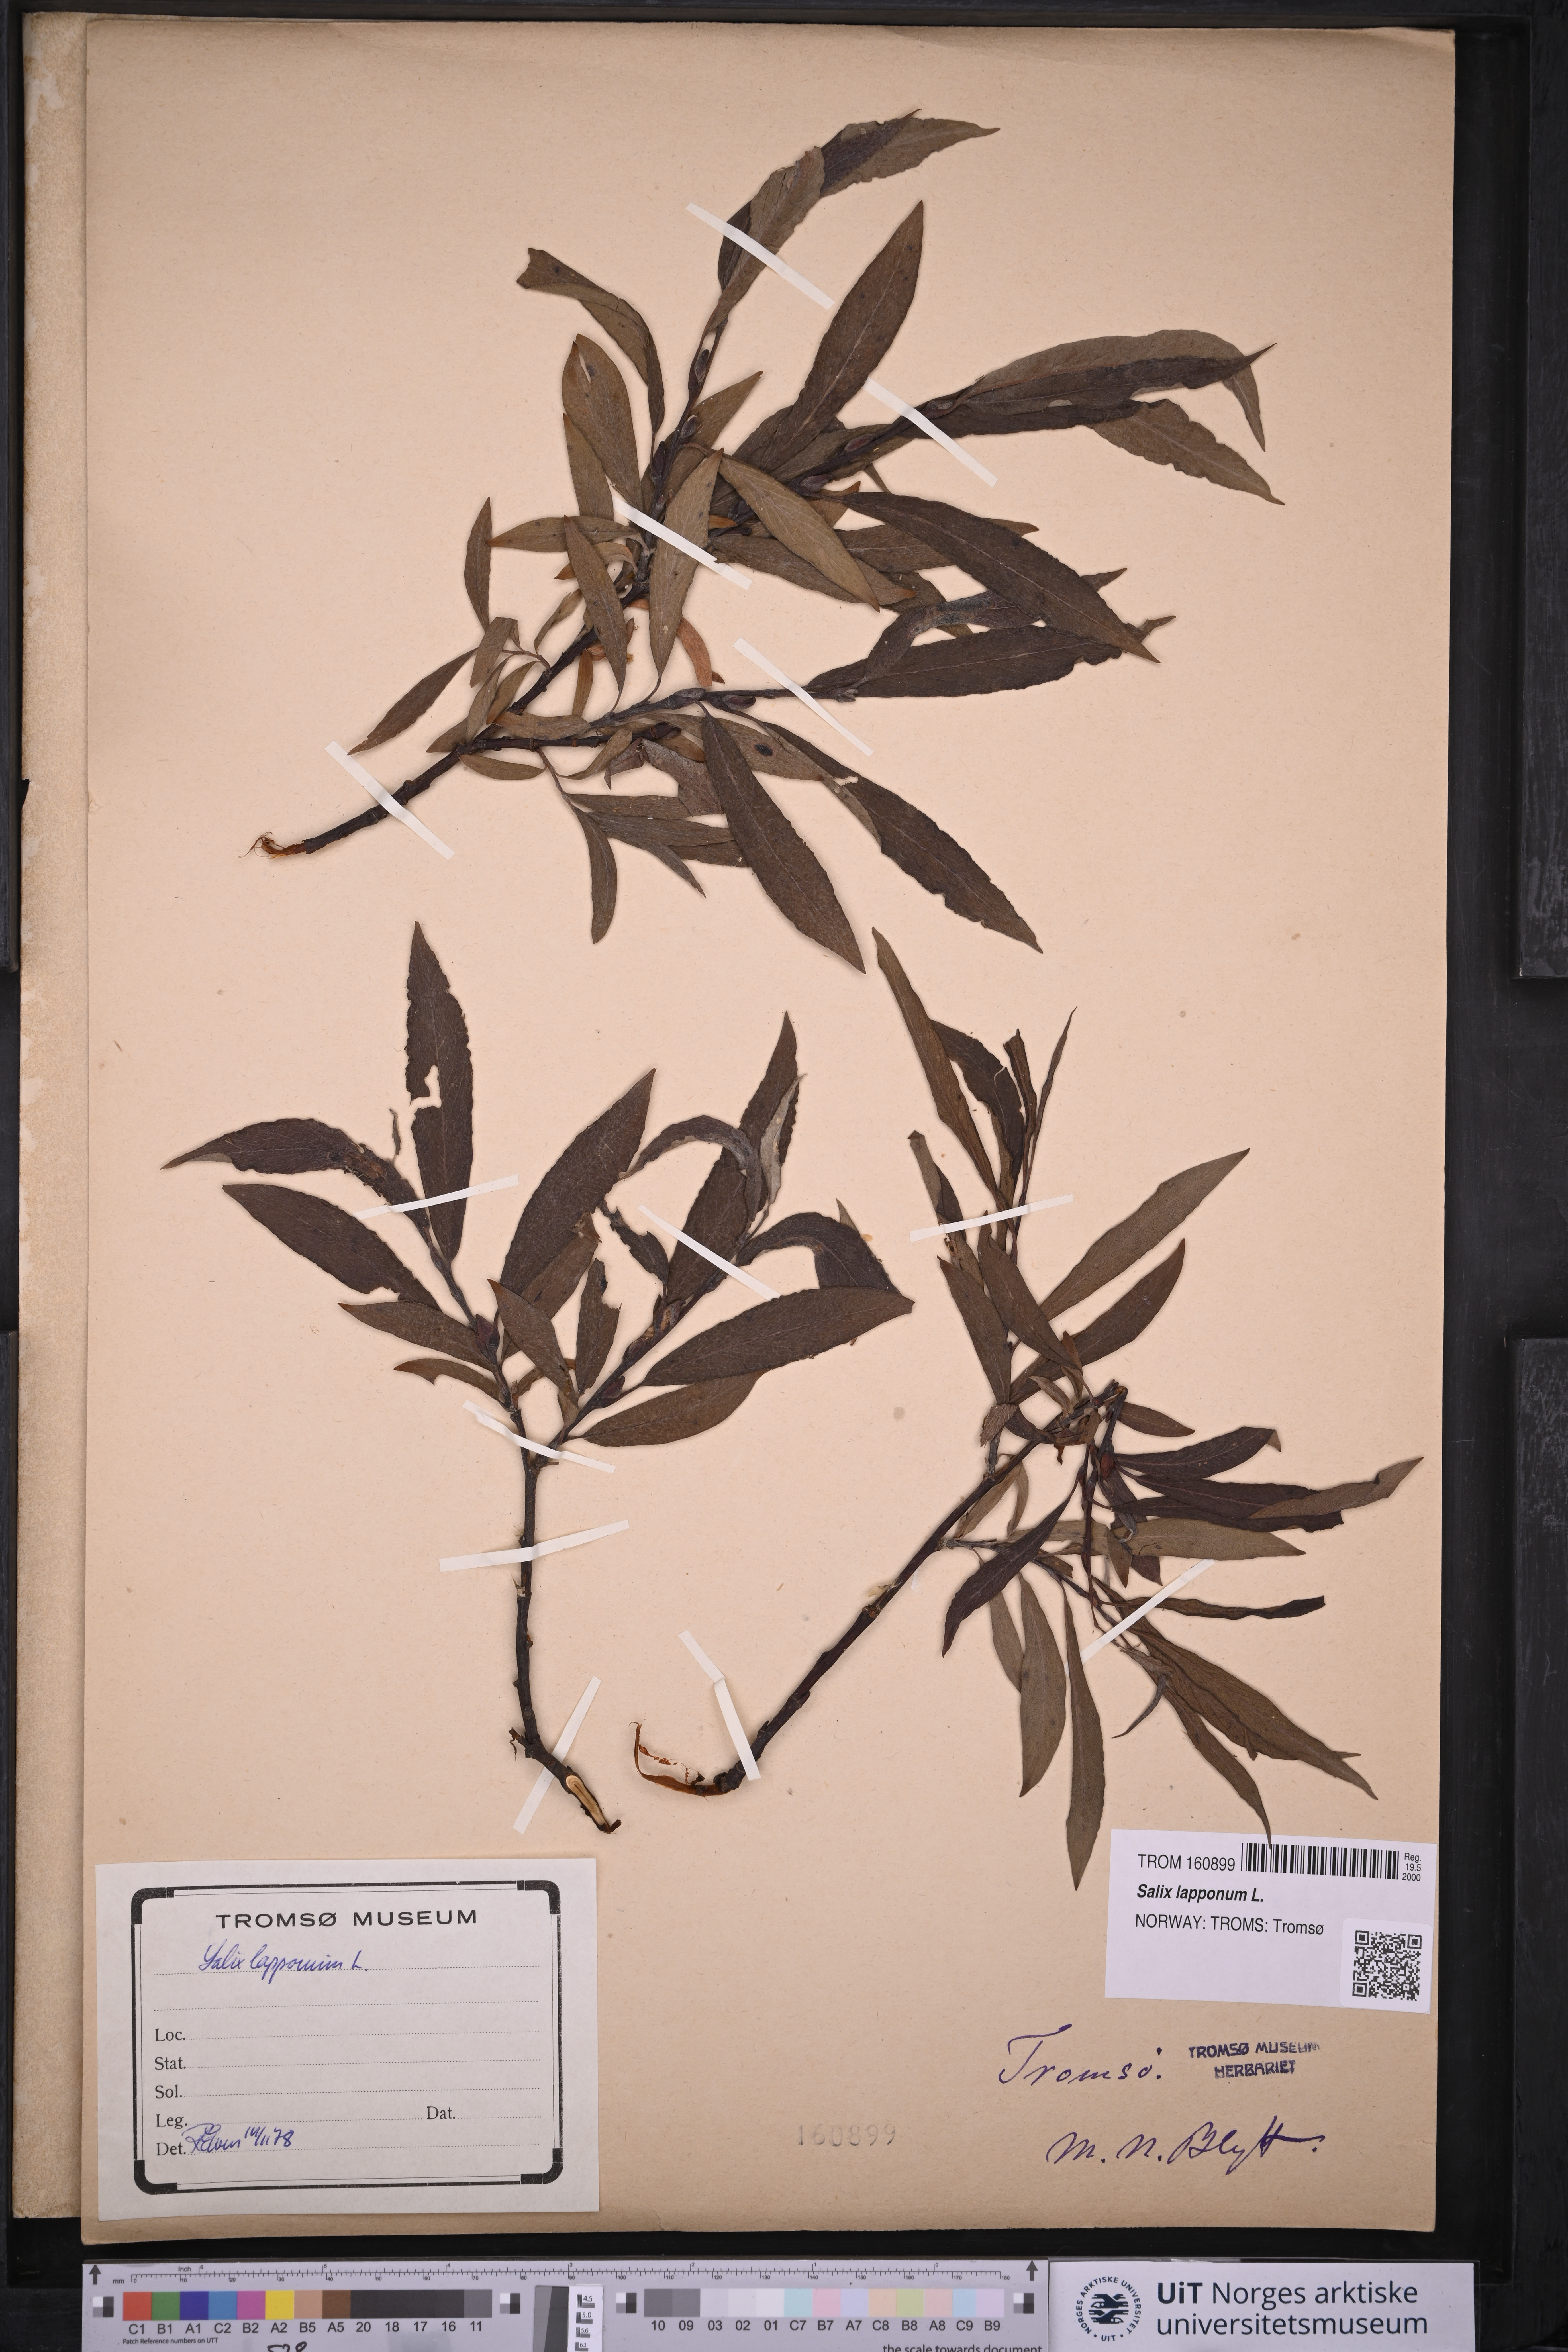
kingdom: Plantae
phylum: Tracheophyta
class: Magnoliopsida
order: Malpighiales
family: Salicaceae
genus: Salix
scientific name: Salix lapponum
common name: Downy willow
